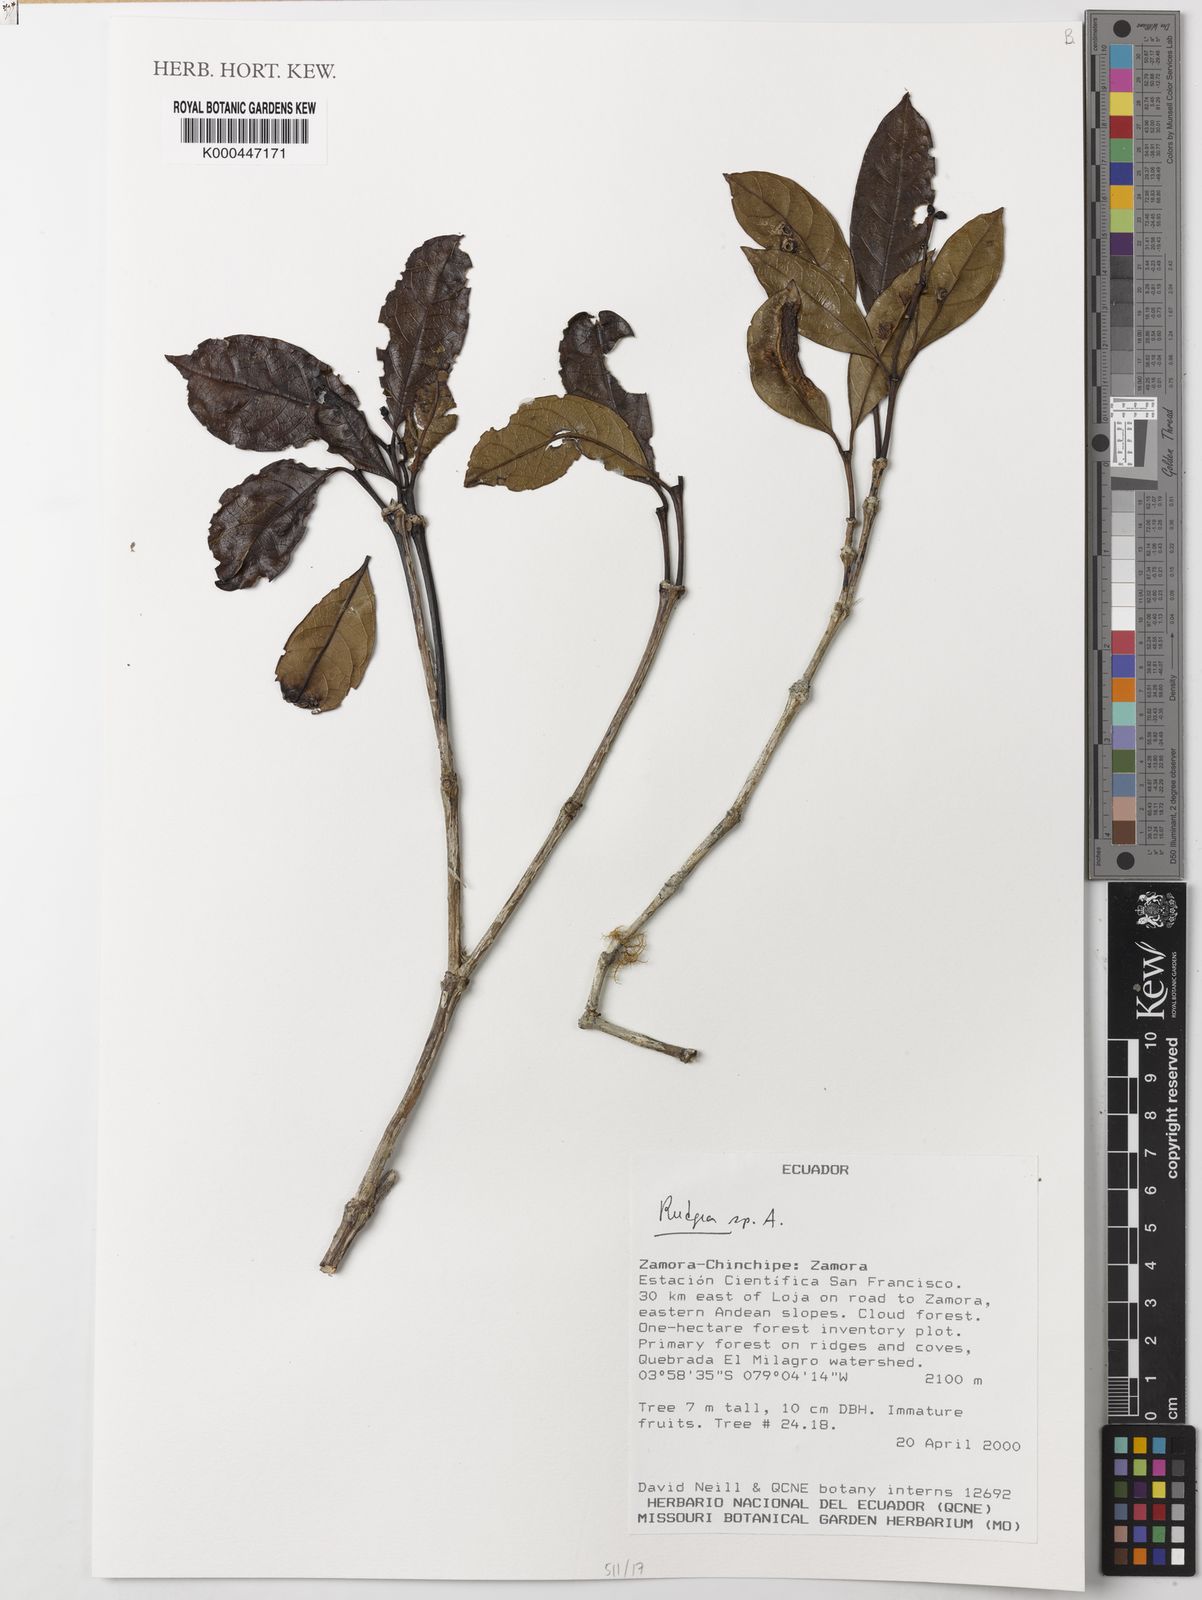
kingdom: Plantae
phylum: Tracheophyta
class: Magnoliopsida
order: Gentianales
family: Rubiaceae
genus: Rudgea
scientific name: Rudgea hospes
